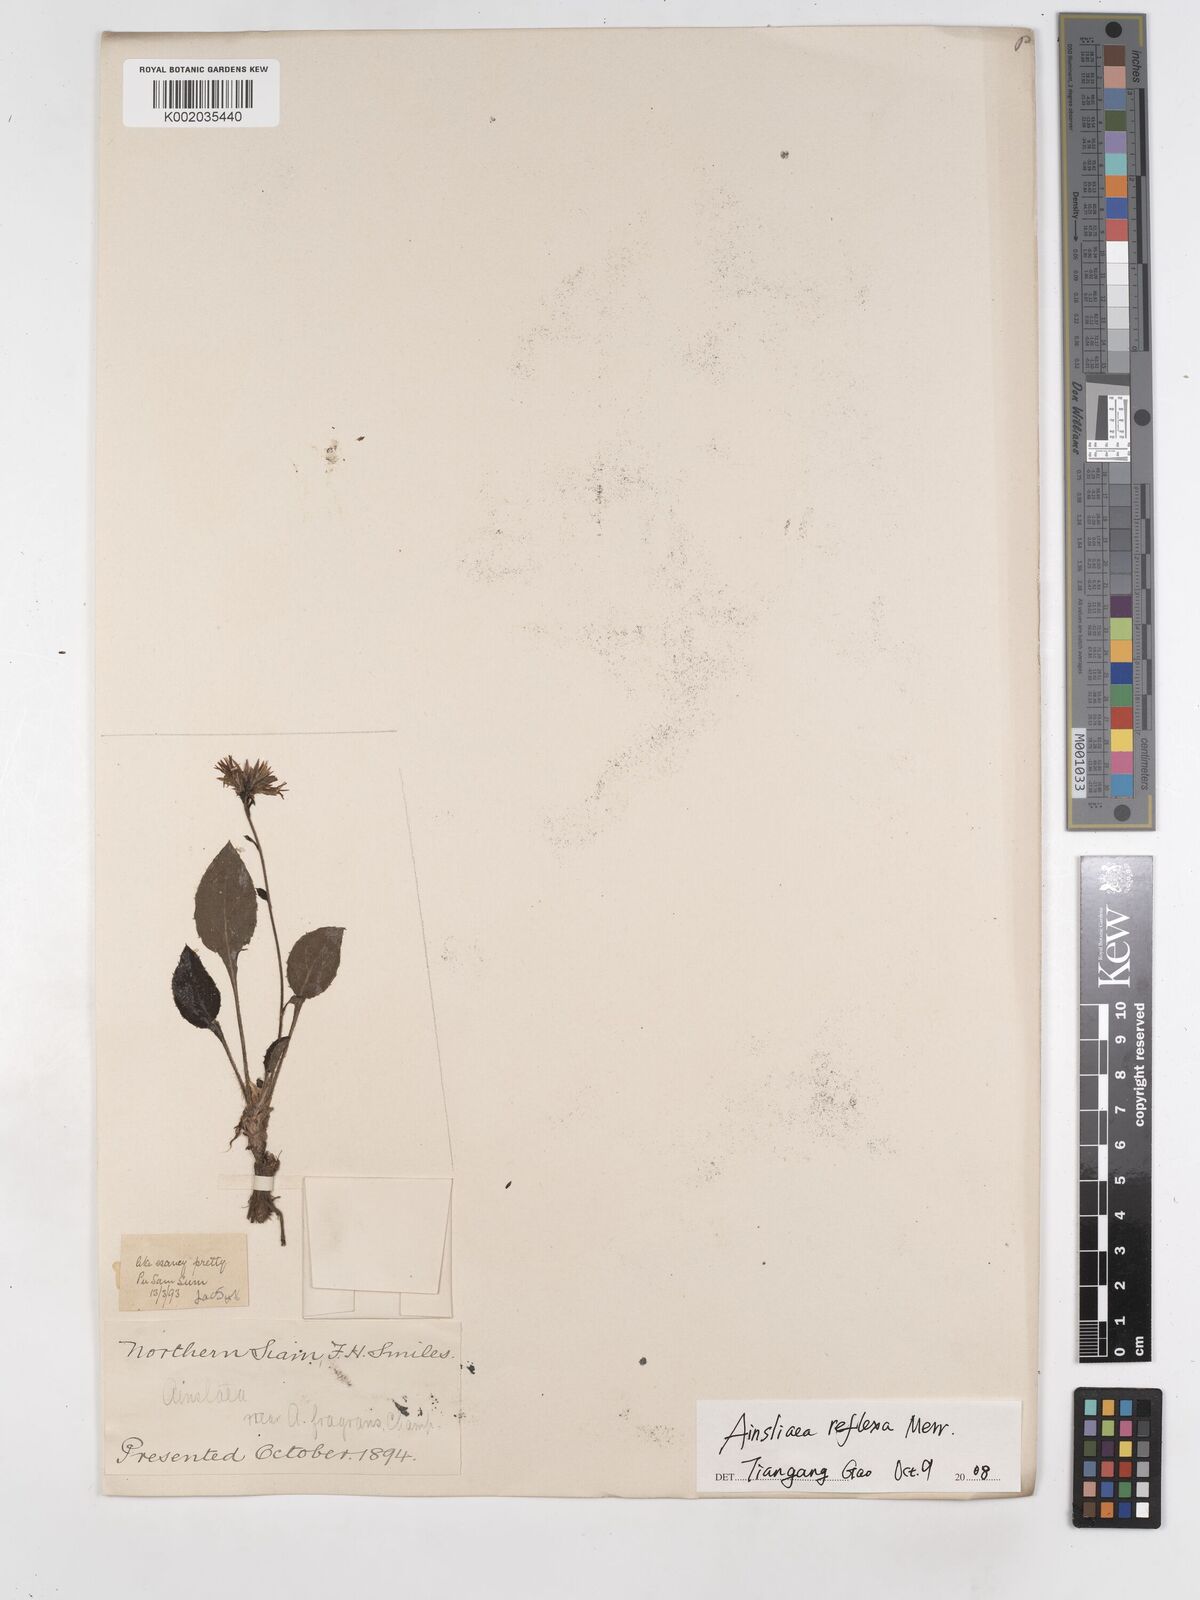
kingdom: Plantae
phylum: Tracheophyta
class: Magnoliopsida
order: Asterales
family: Asteraceae
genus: Ainsliaea
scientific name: Ainsliaea reflexa
